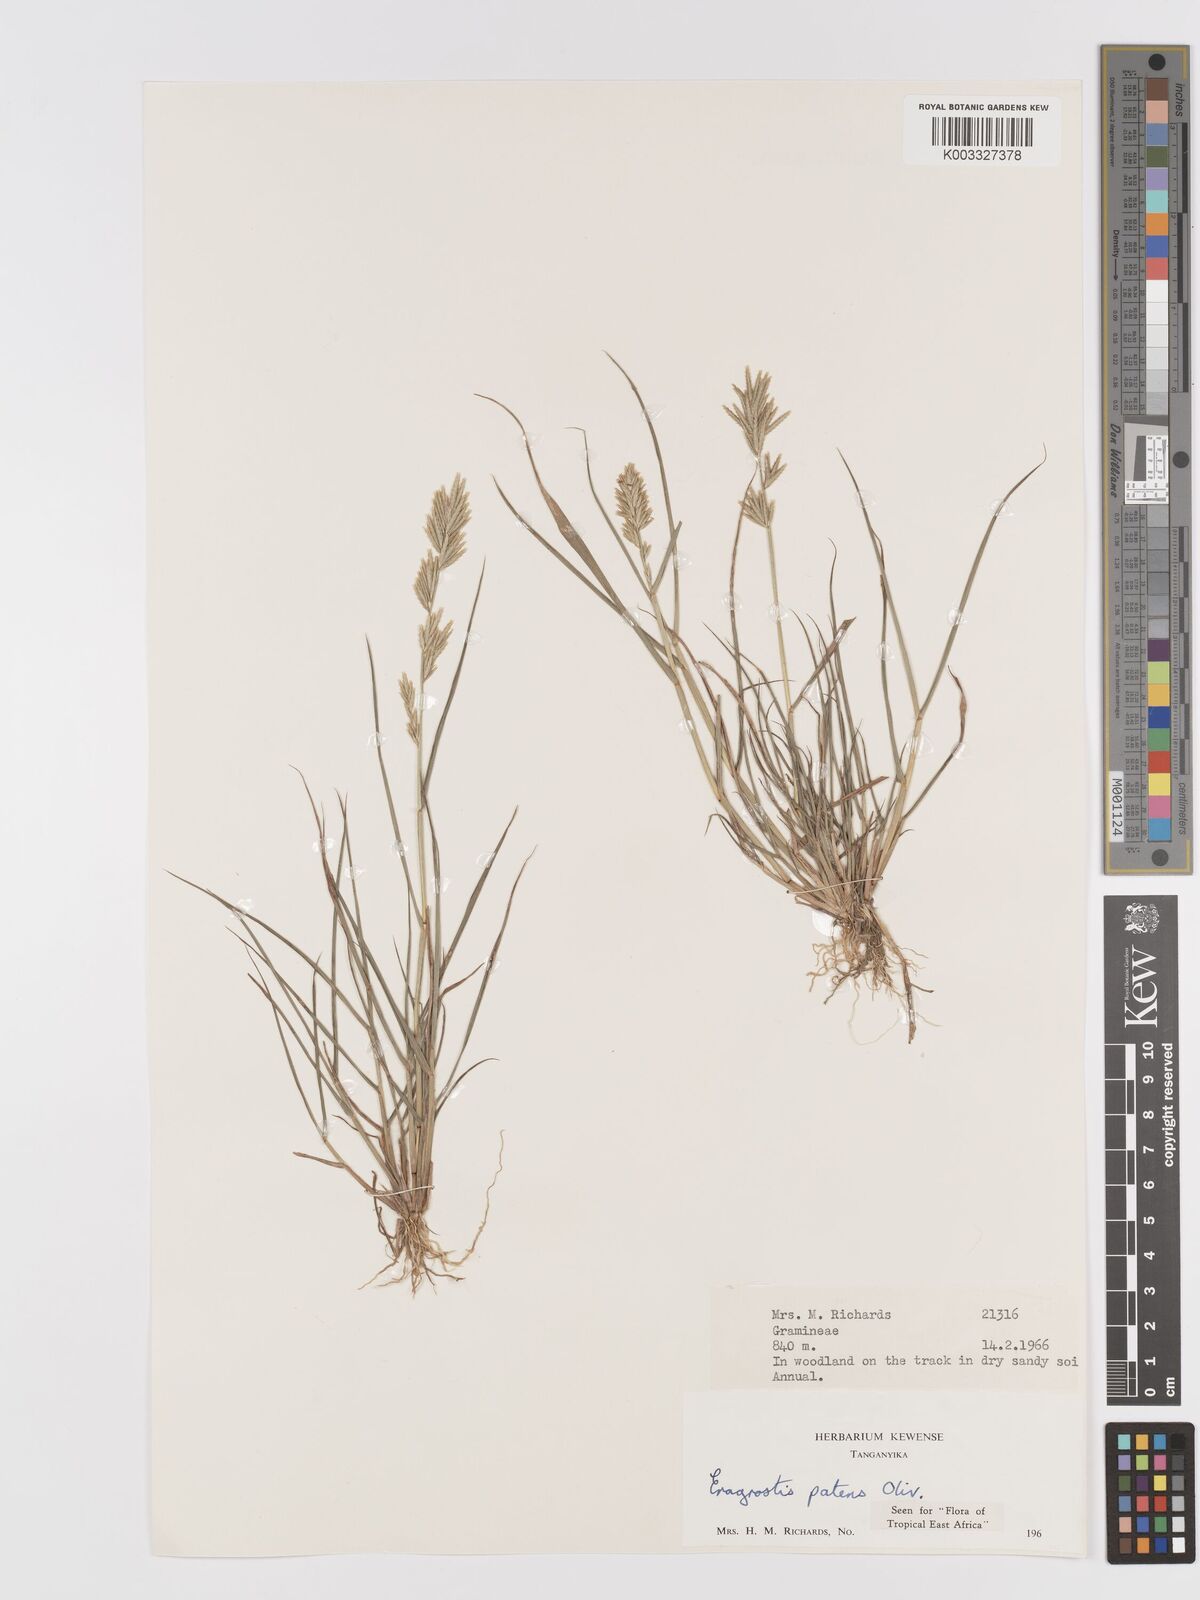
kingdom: Plantae
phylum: Tracheophyta
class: Liliopsida
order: Poales
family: Poaceae
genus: Eragrostis
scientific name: Eragrostis patens
